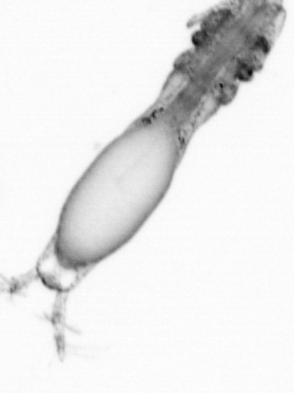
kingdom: Animalia
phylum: Arthropoda
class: Copepoda
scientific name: Copepoda
